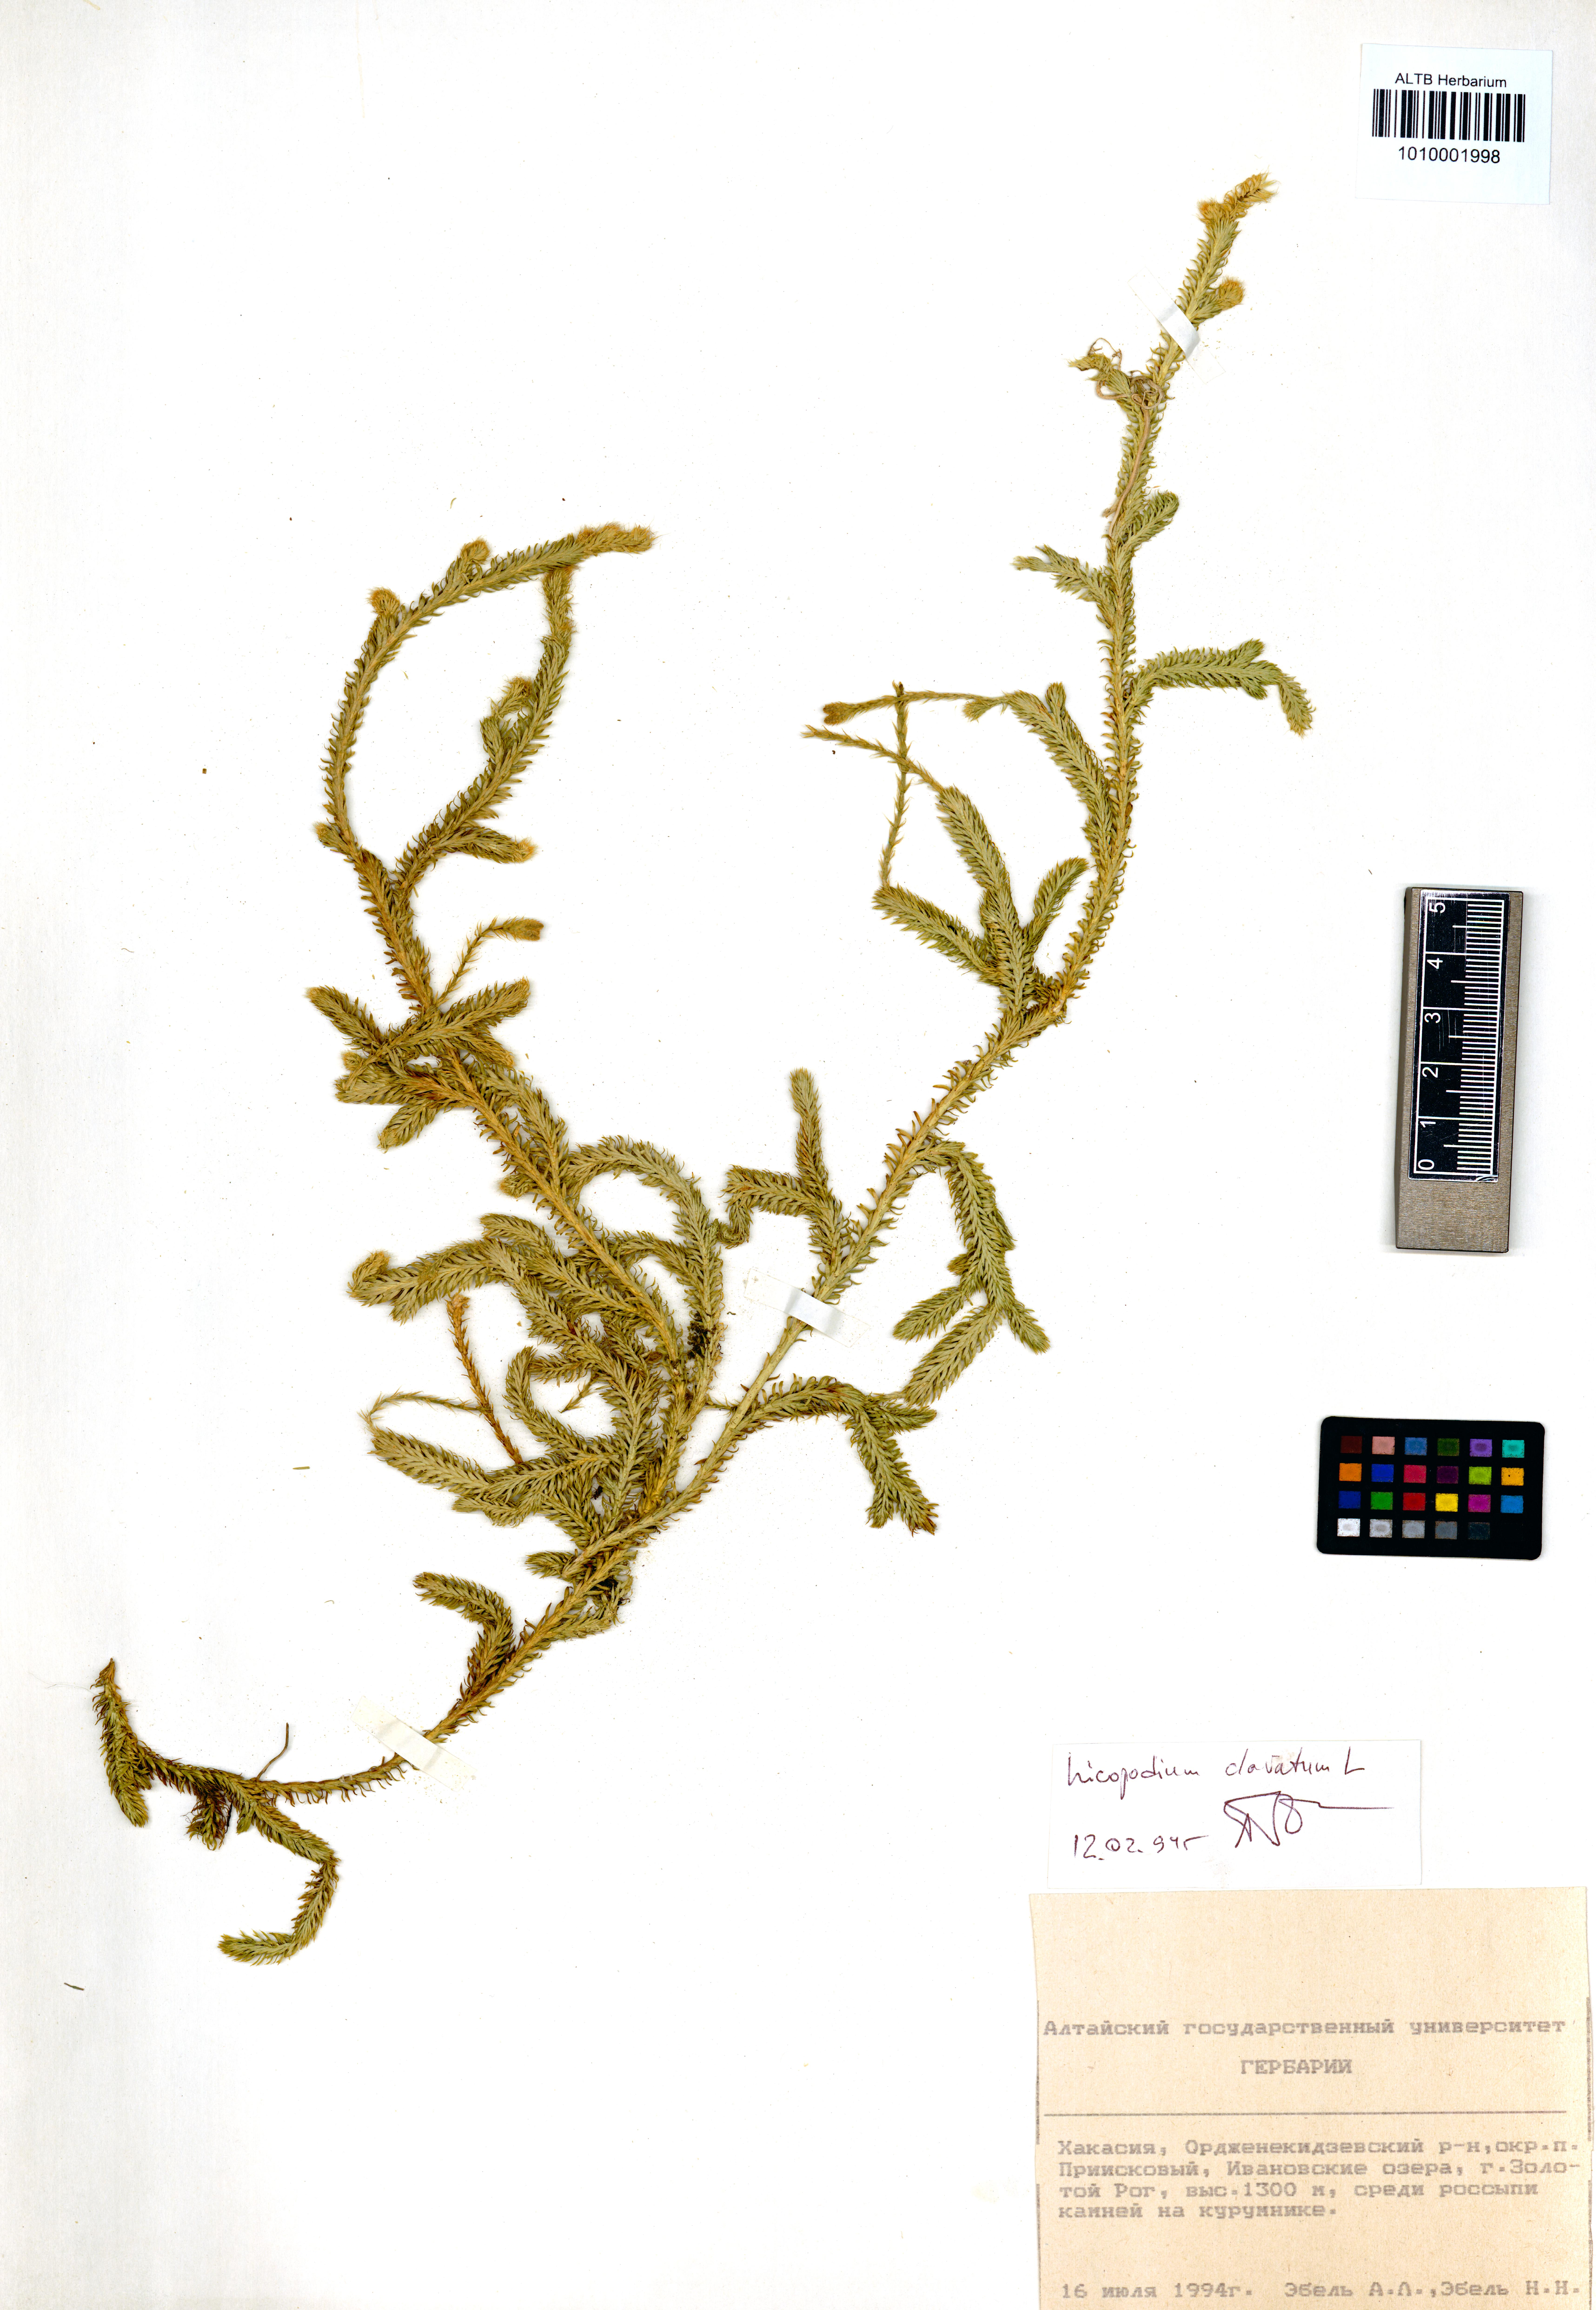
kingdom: Plantae
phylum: Tracheophyta
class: Lycopodiopsida
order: Lycopodiales
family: Lycopodiaceae
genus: Lycopodium
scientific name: Lycopodium clavatum
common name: Stag's-horn clubmoss
